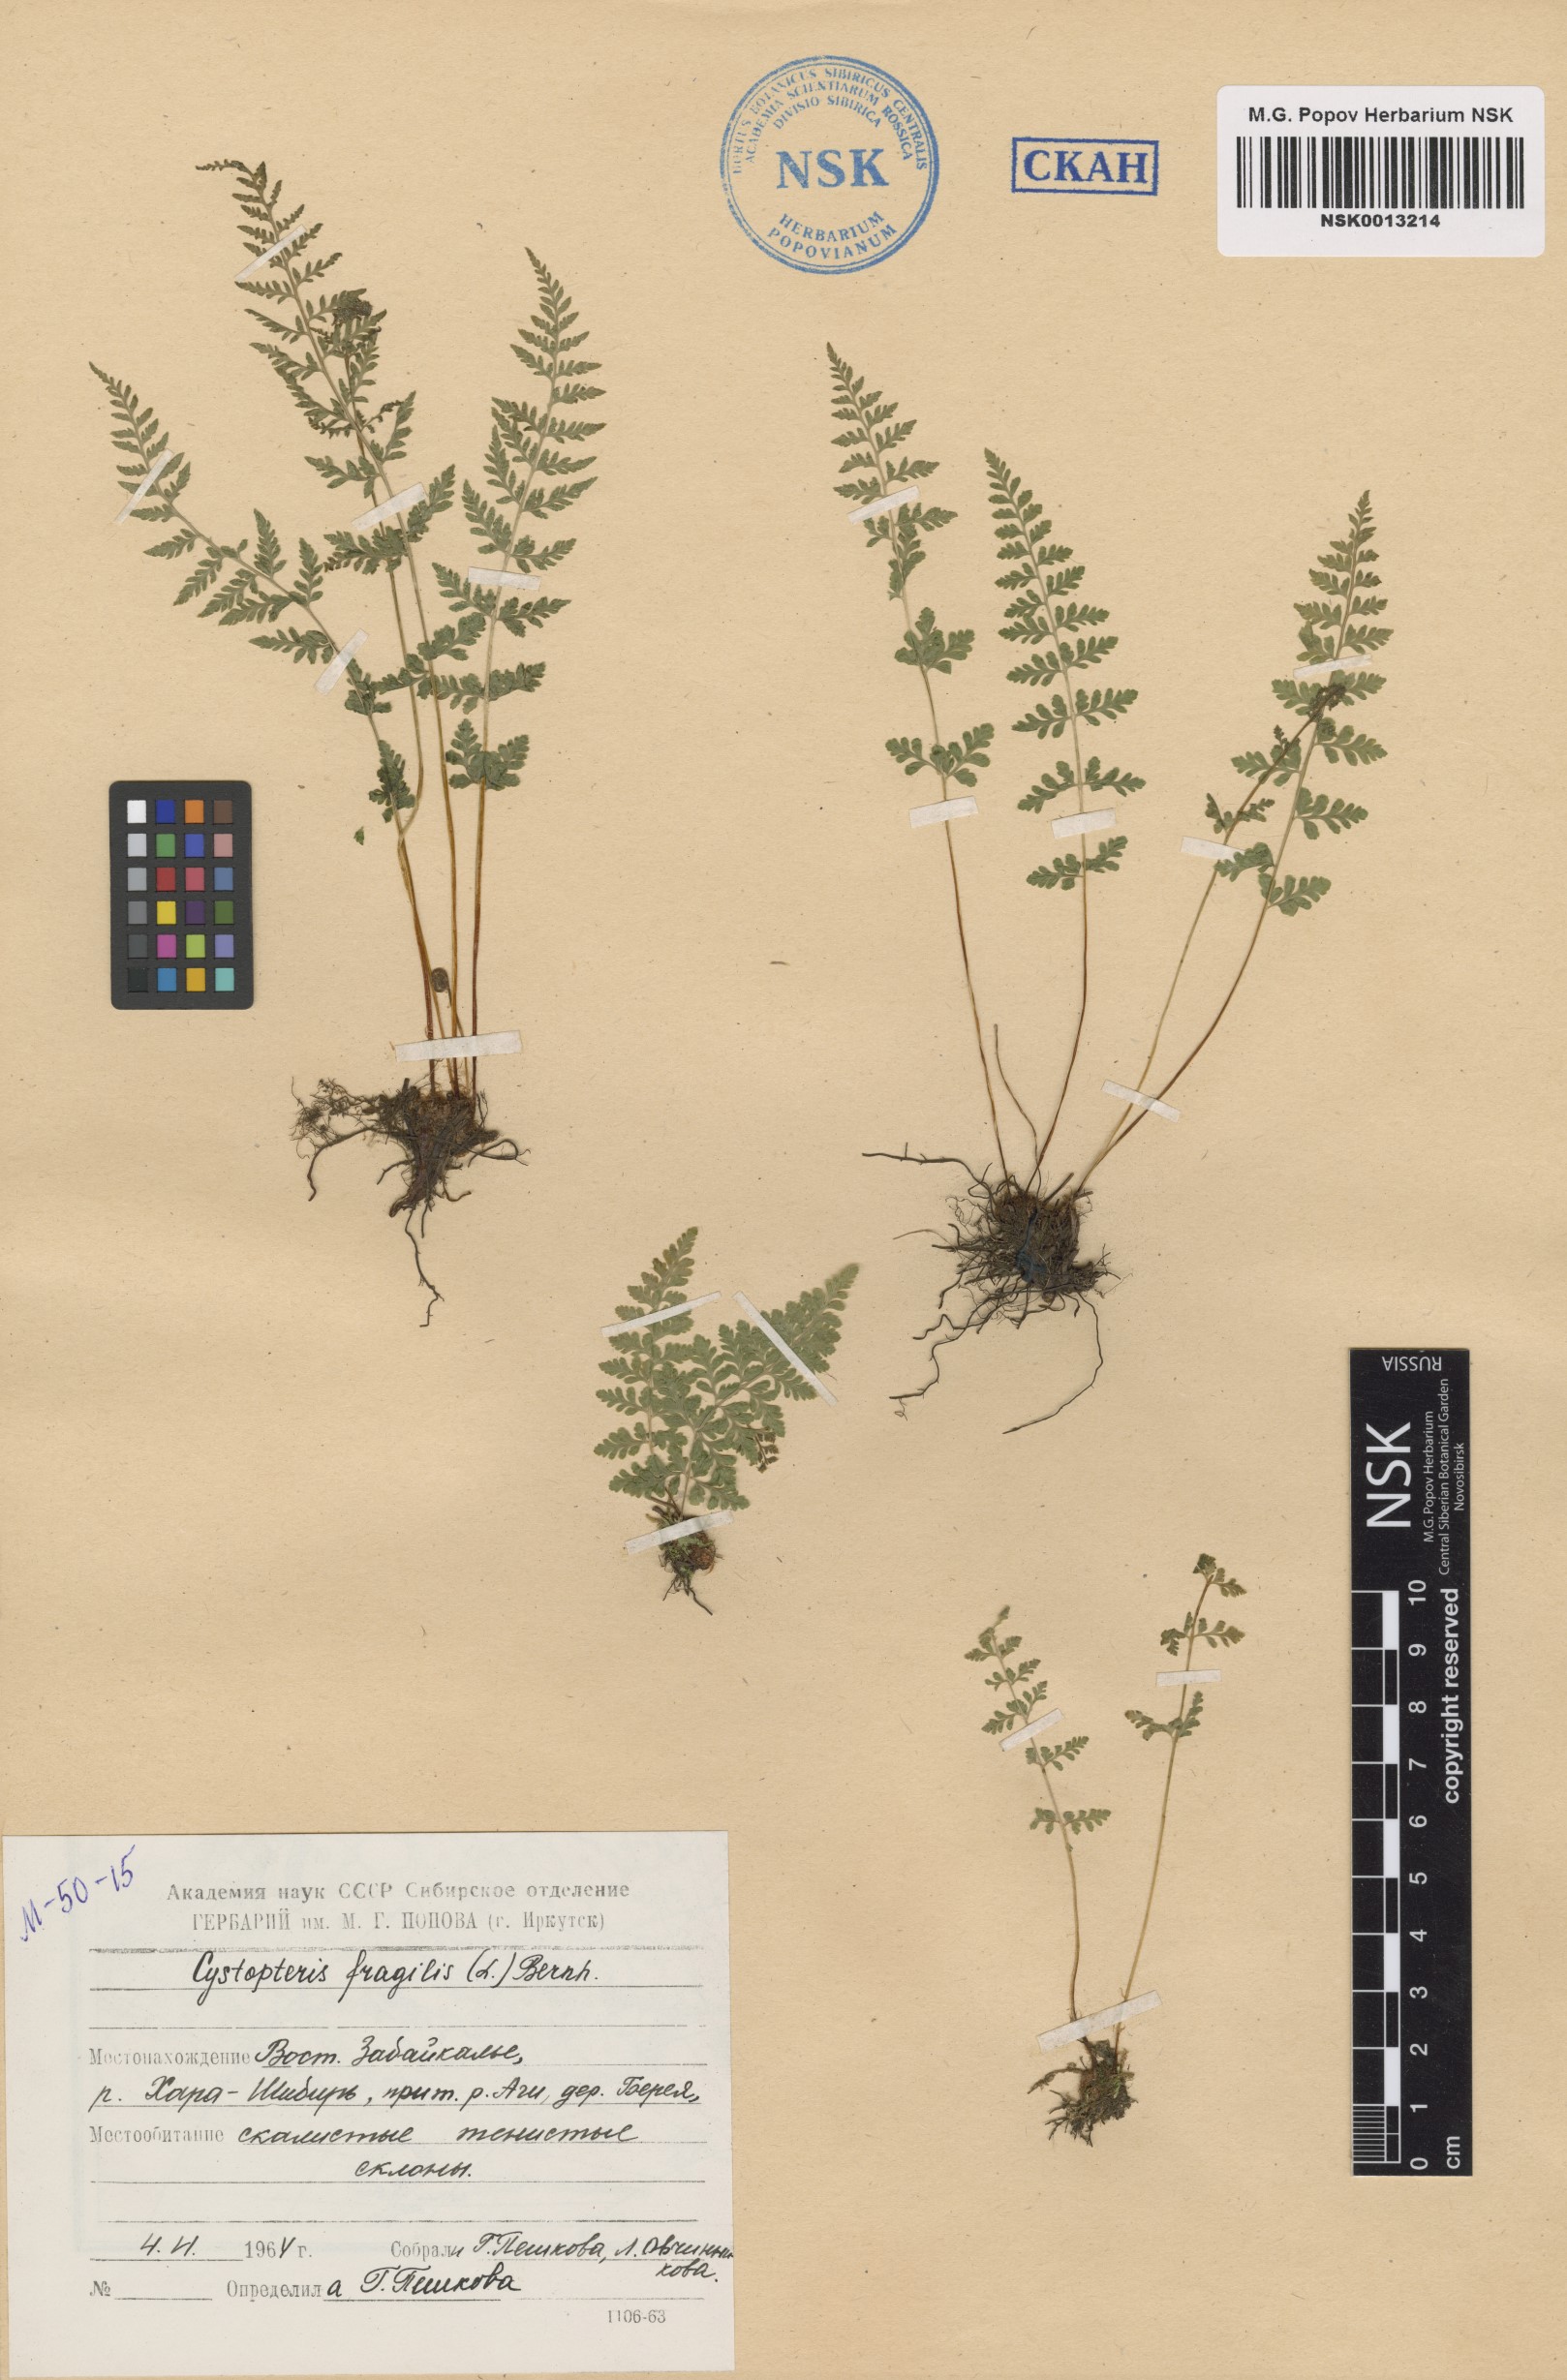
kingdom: Plantae
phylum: Tracheophyta
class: Polypodiopsida
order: Polypodiales
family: Cystopteridaceae
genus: Cystopteris
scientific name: Cystopteris fragilis
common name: Brittle bladder fern
